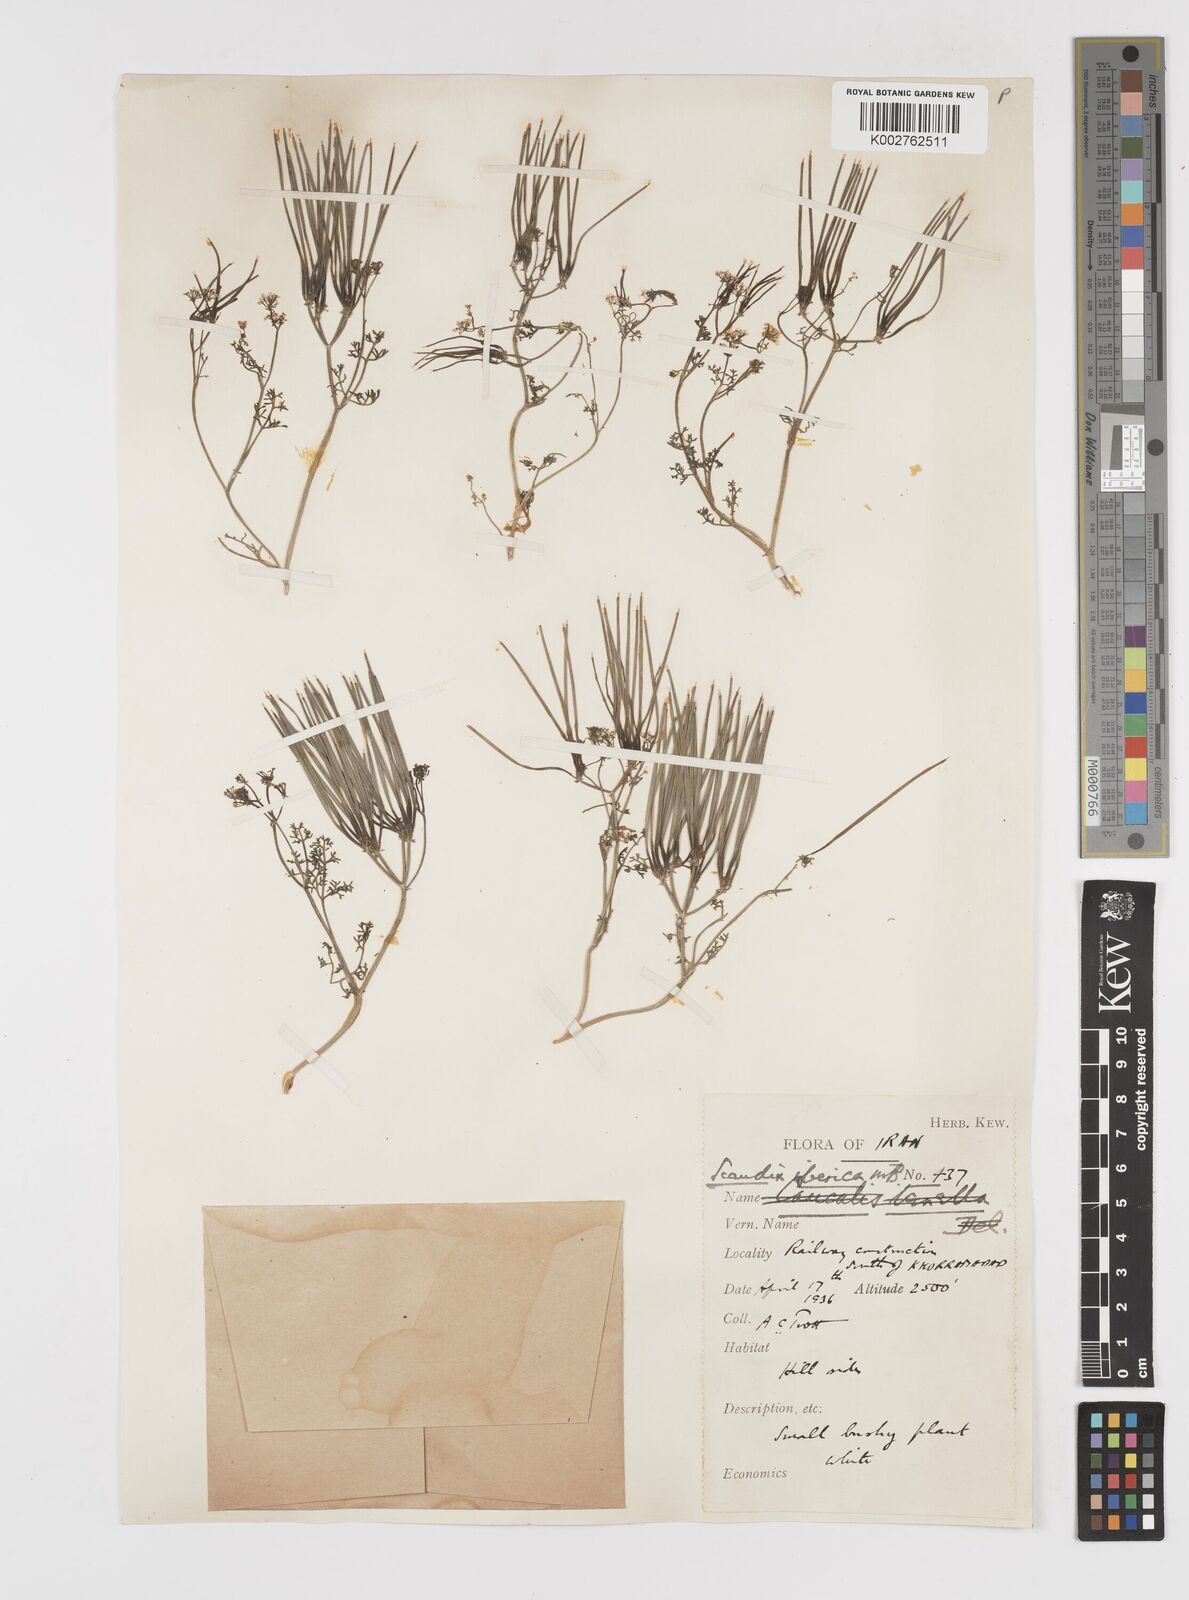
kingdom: Plantae
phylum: Tracheophyta
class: Magnoliopsida
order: Apiales
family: Apiaceae
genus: Scandix
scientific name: Scandix iberica
